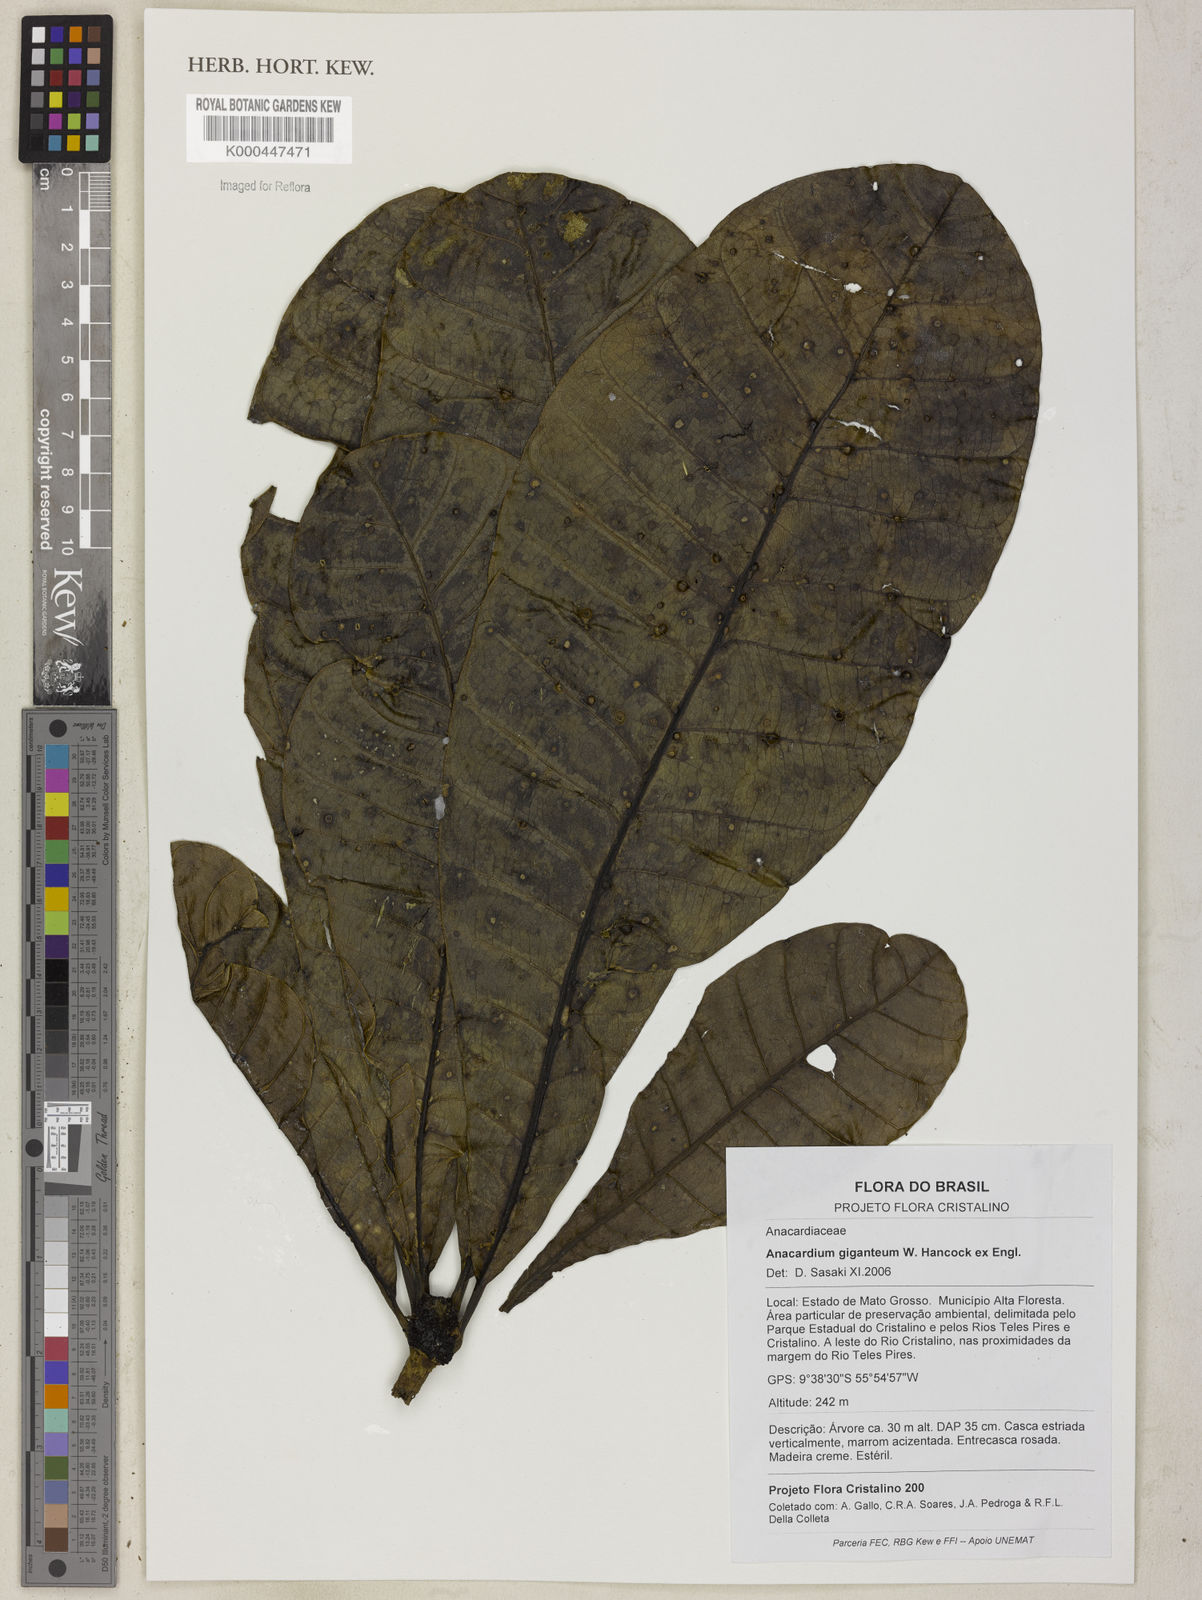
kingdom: Plantae
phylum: Tracheophyta
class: Magnoliopsida
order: Sapindales
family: Anacardiaceae
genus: Anacardium
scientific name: Anacardium giganteum
